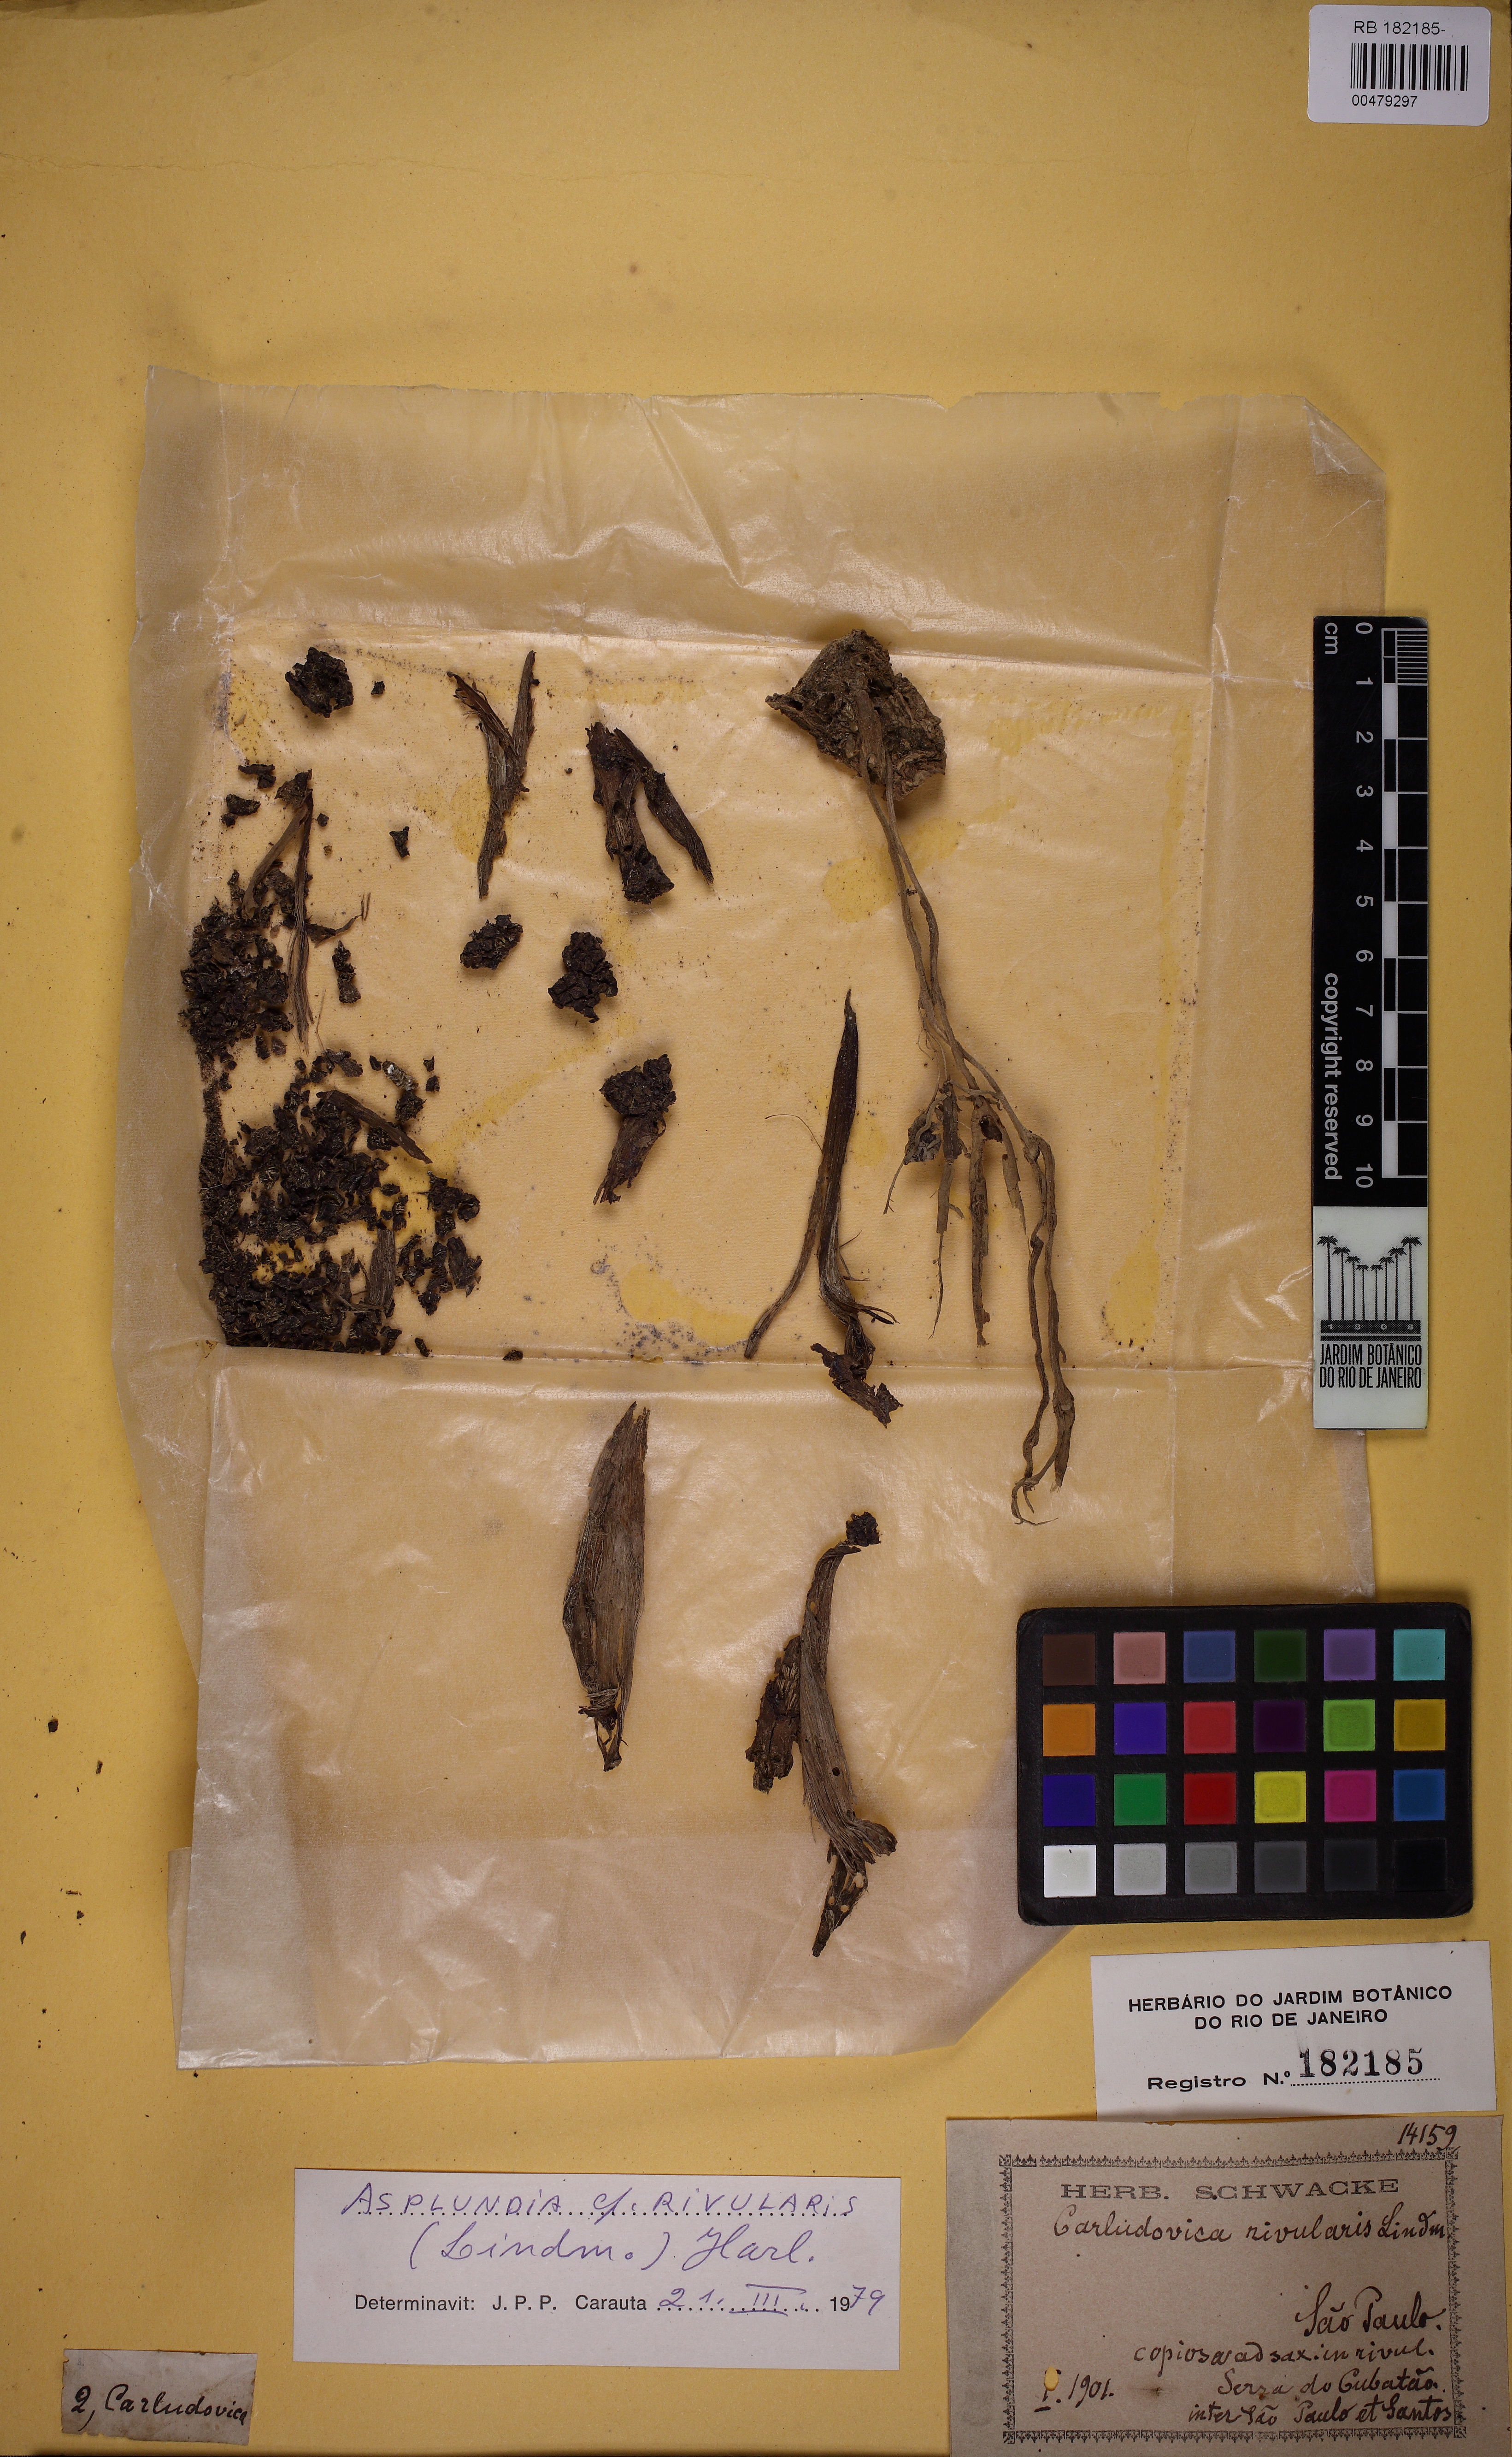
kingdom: Plantae
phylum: Tracheophyta
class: Liliopsida
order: Pandanales
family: Cyclanthaceae
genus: Asplundia
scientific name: Asplundia rivularis
